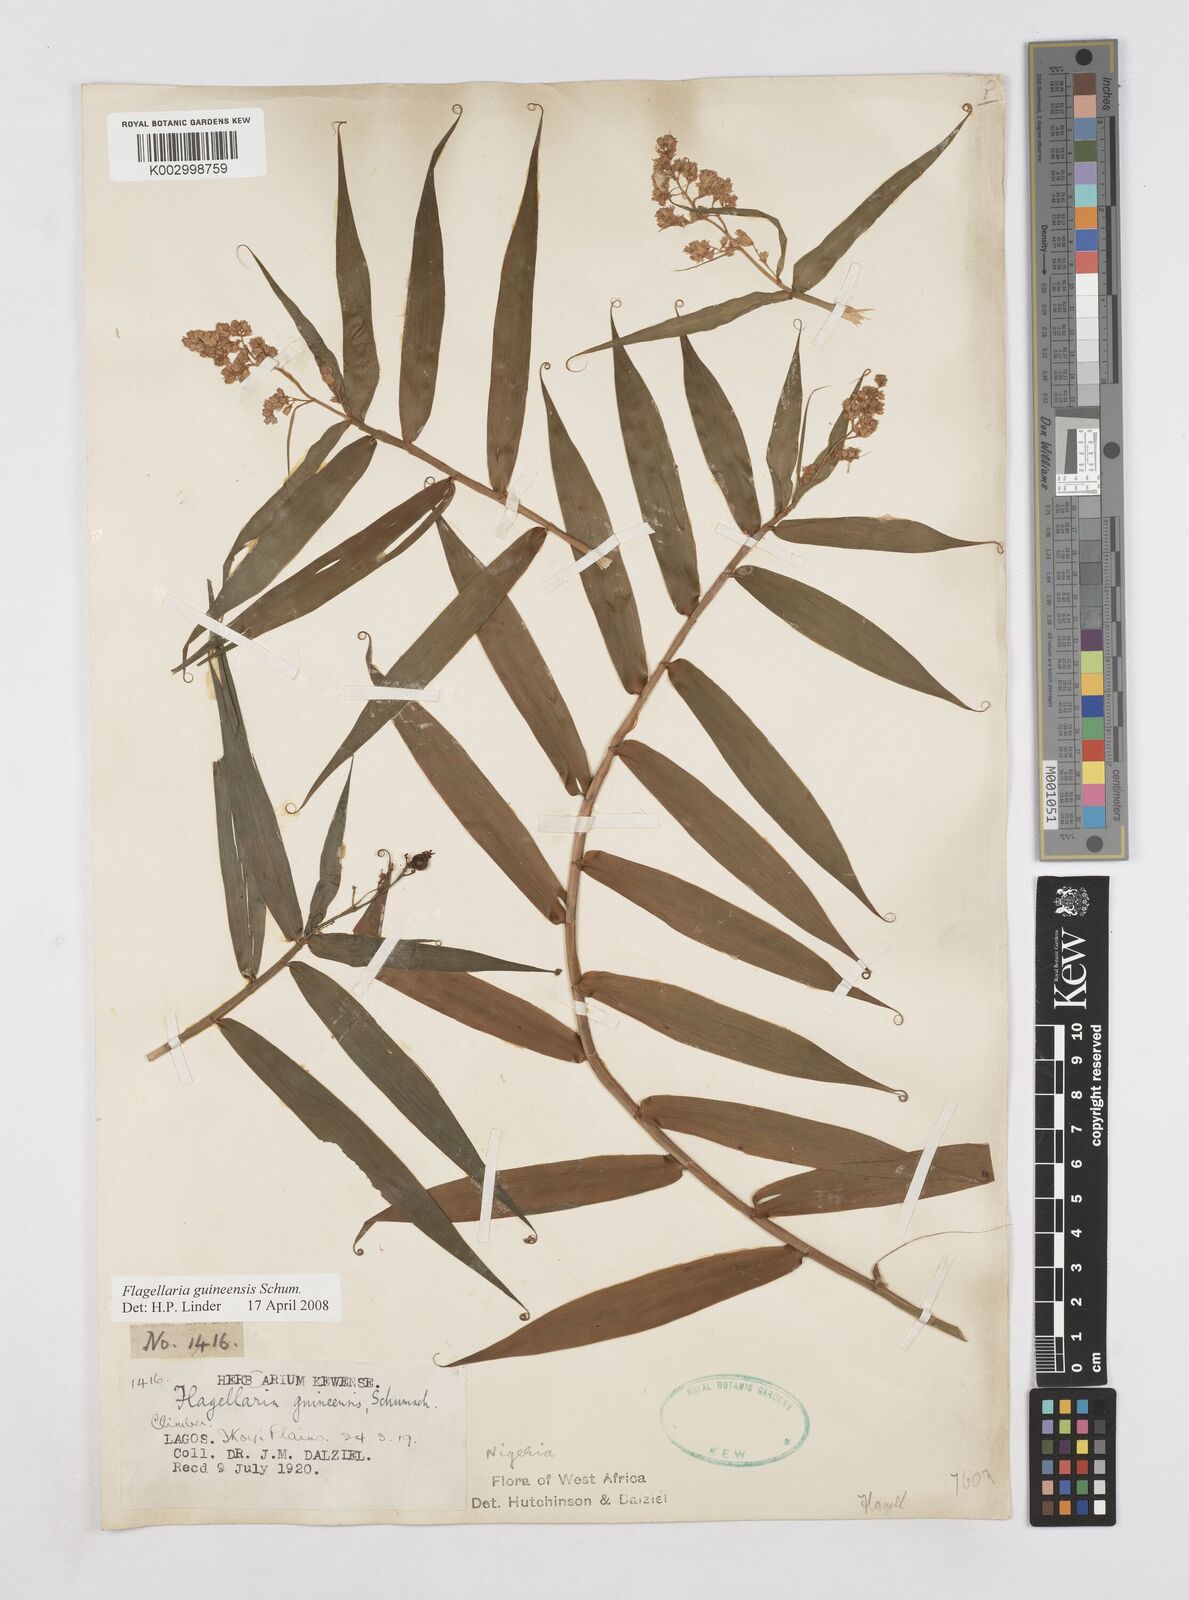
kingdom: Plantae
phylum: Tracheophyta
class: Liliopsida
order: Poales
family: Flagellariaceae
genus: Flagellaria
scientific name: Flagellaria guineensis
